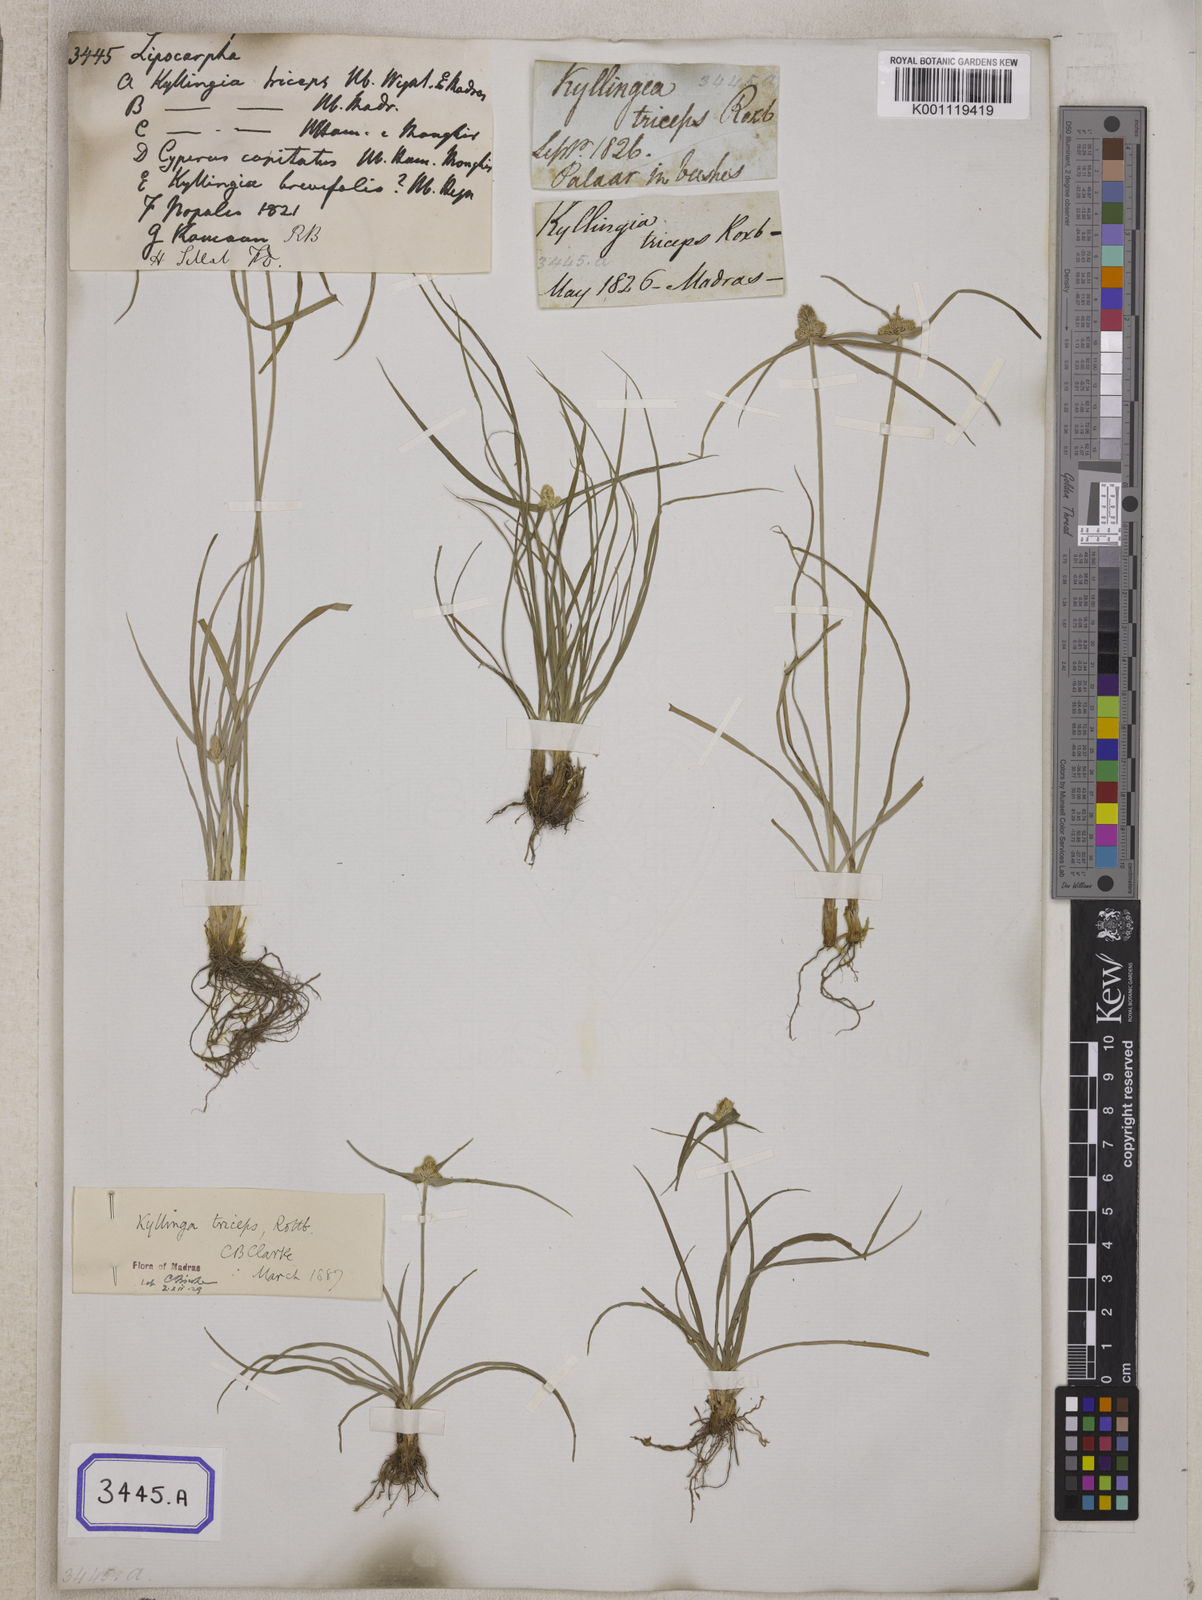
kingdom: Plantae
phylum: Tracheophyta
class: Liliopsida
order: Poales
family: Cyperaceae
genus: Cyperus
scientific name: Cyperus
